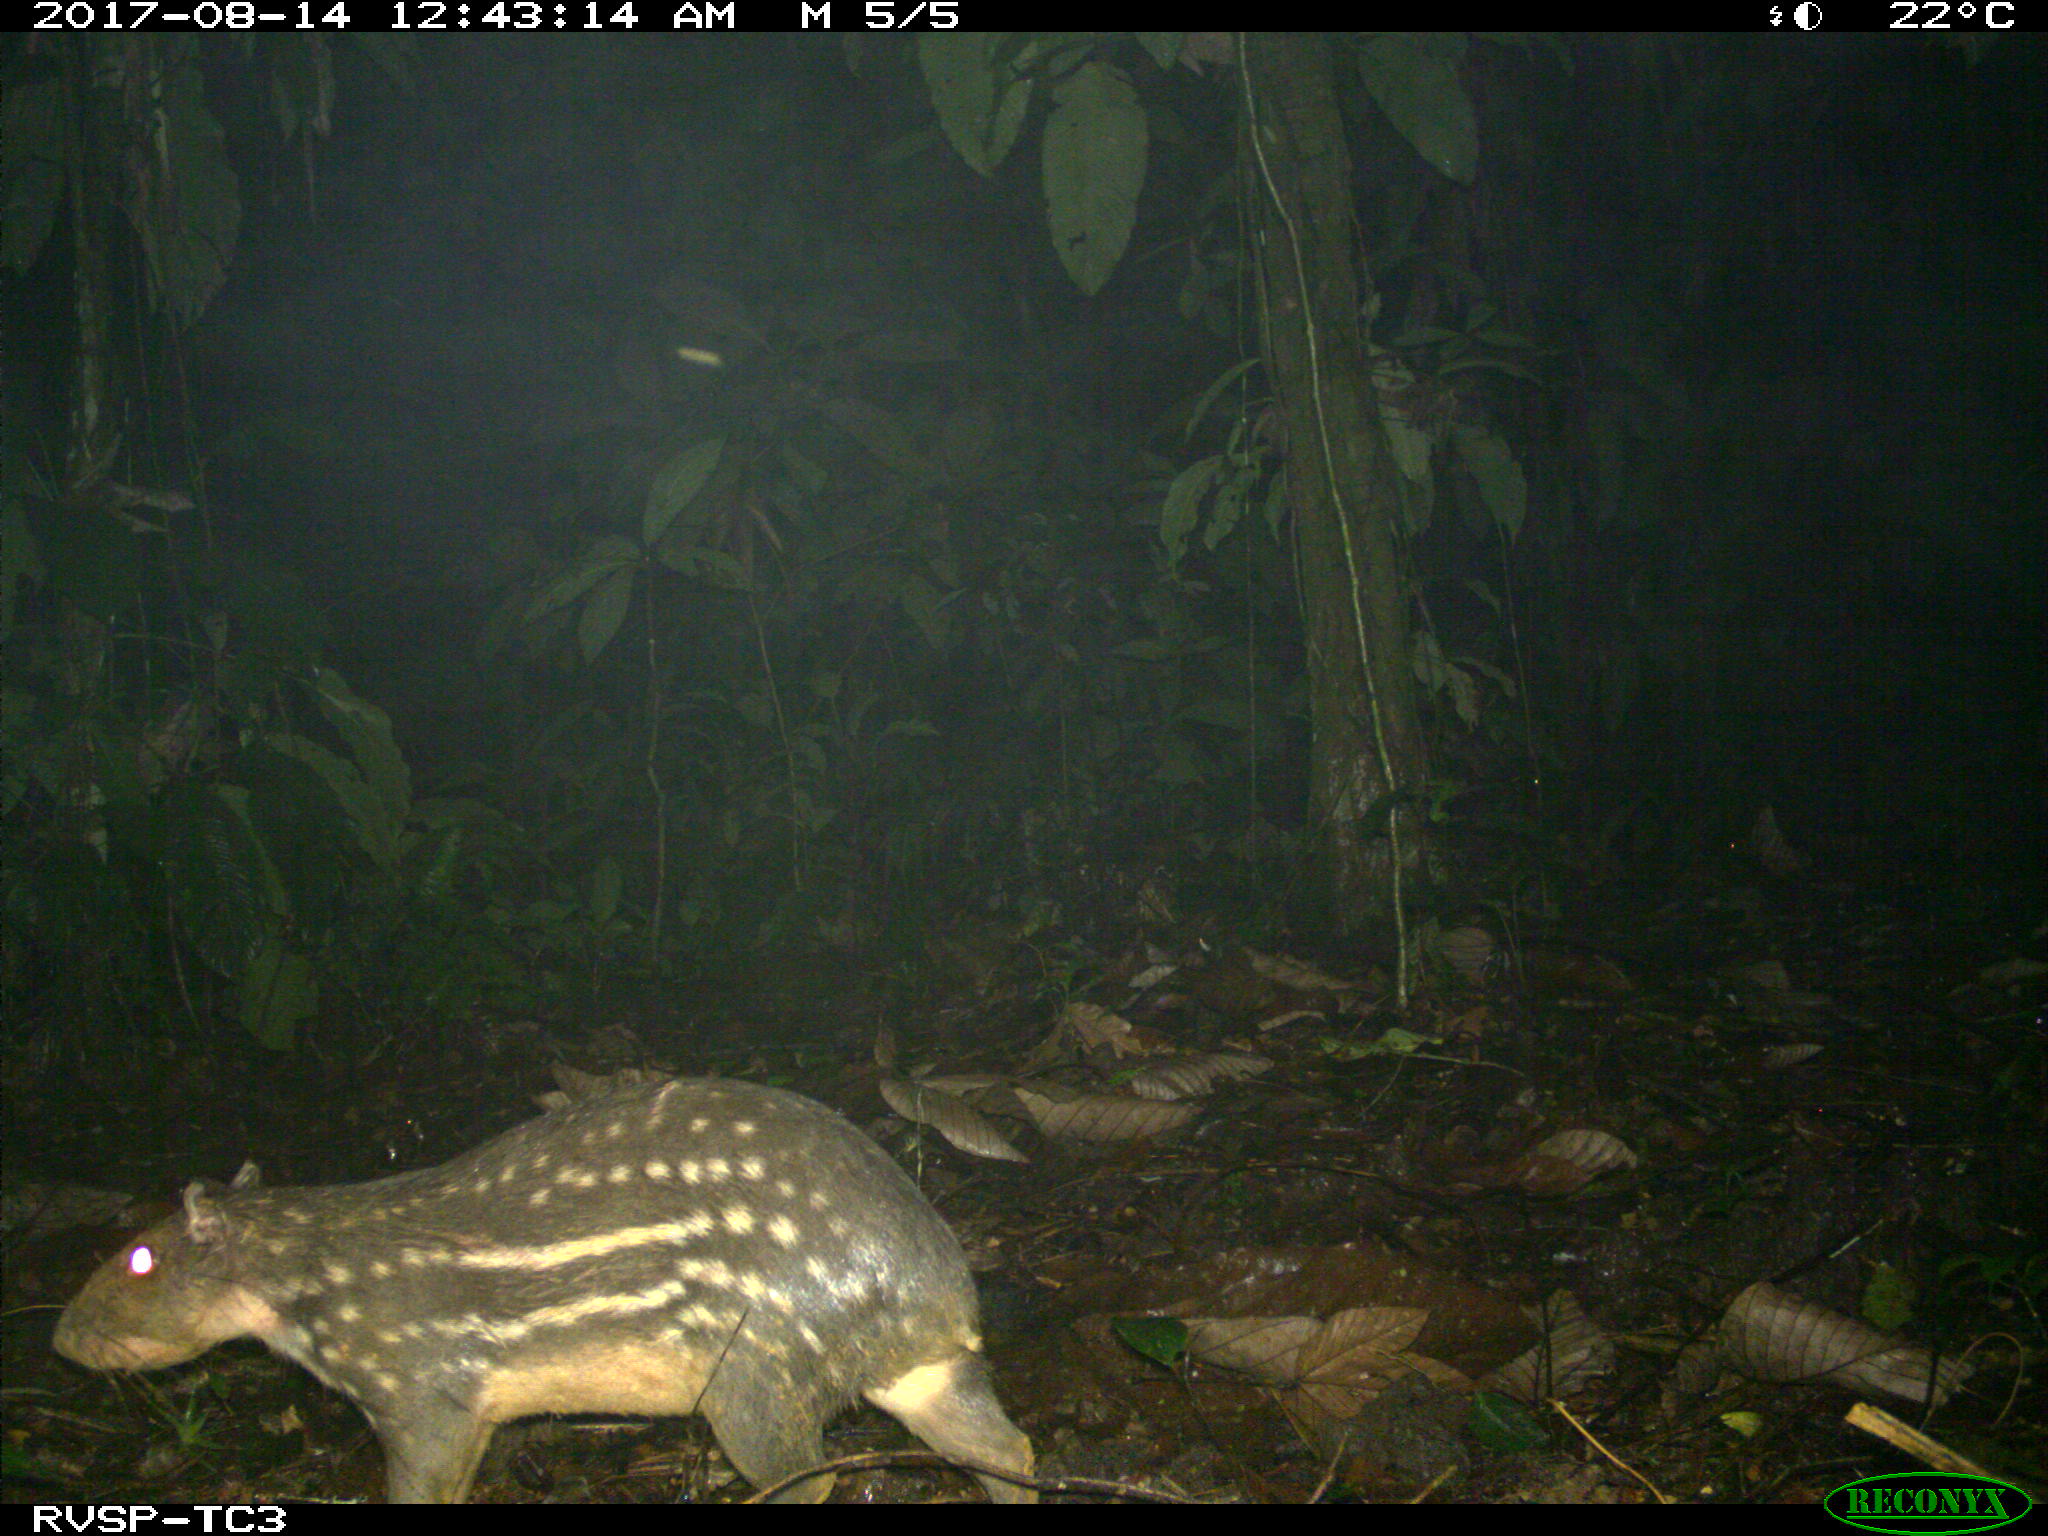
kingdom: Animalia
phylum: Chordata
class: Mammalia
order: Rodentia
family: Cuniculidae
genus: Cuniculus
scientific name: Cuniculus paca
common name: Lowland paca
